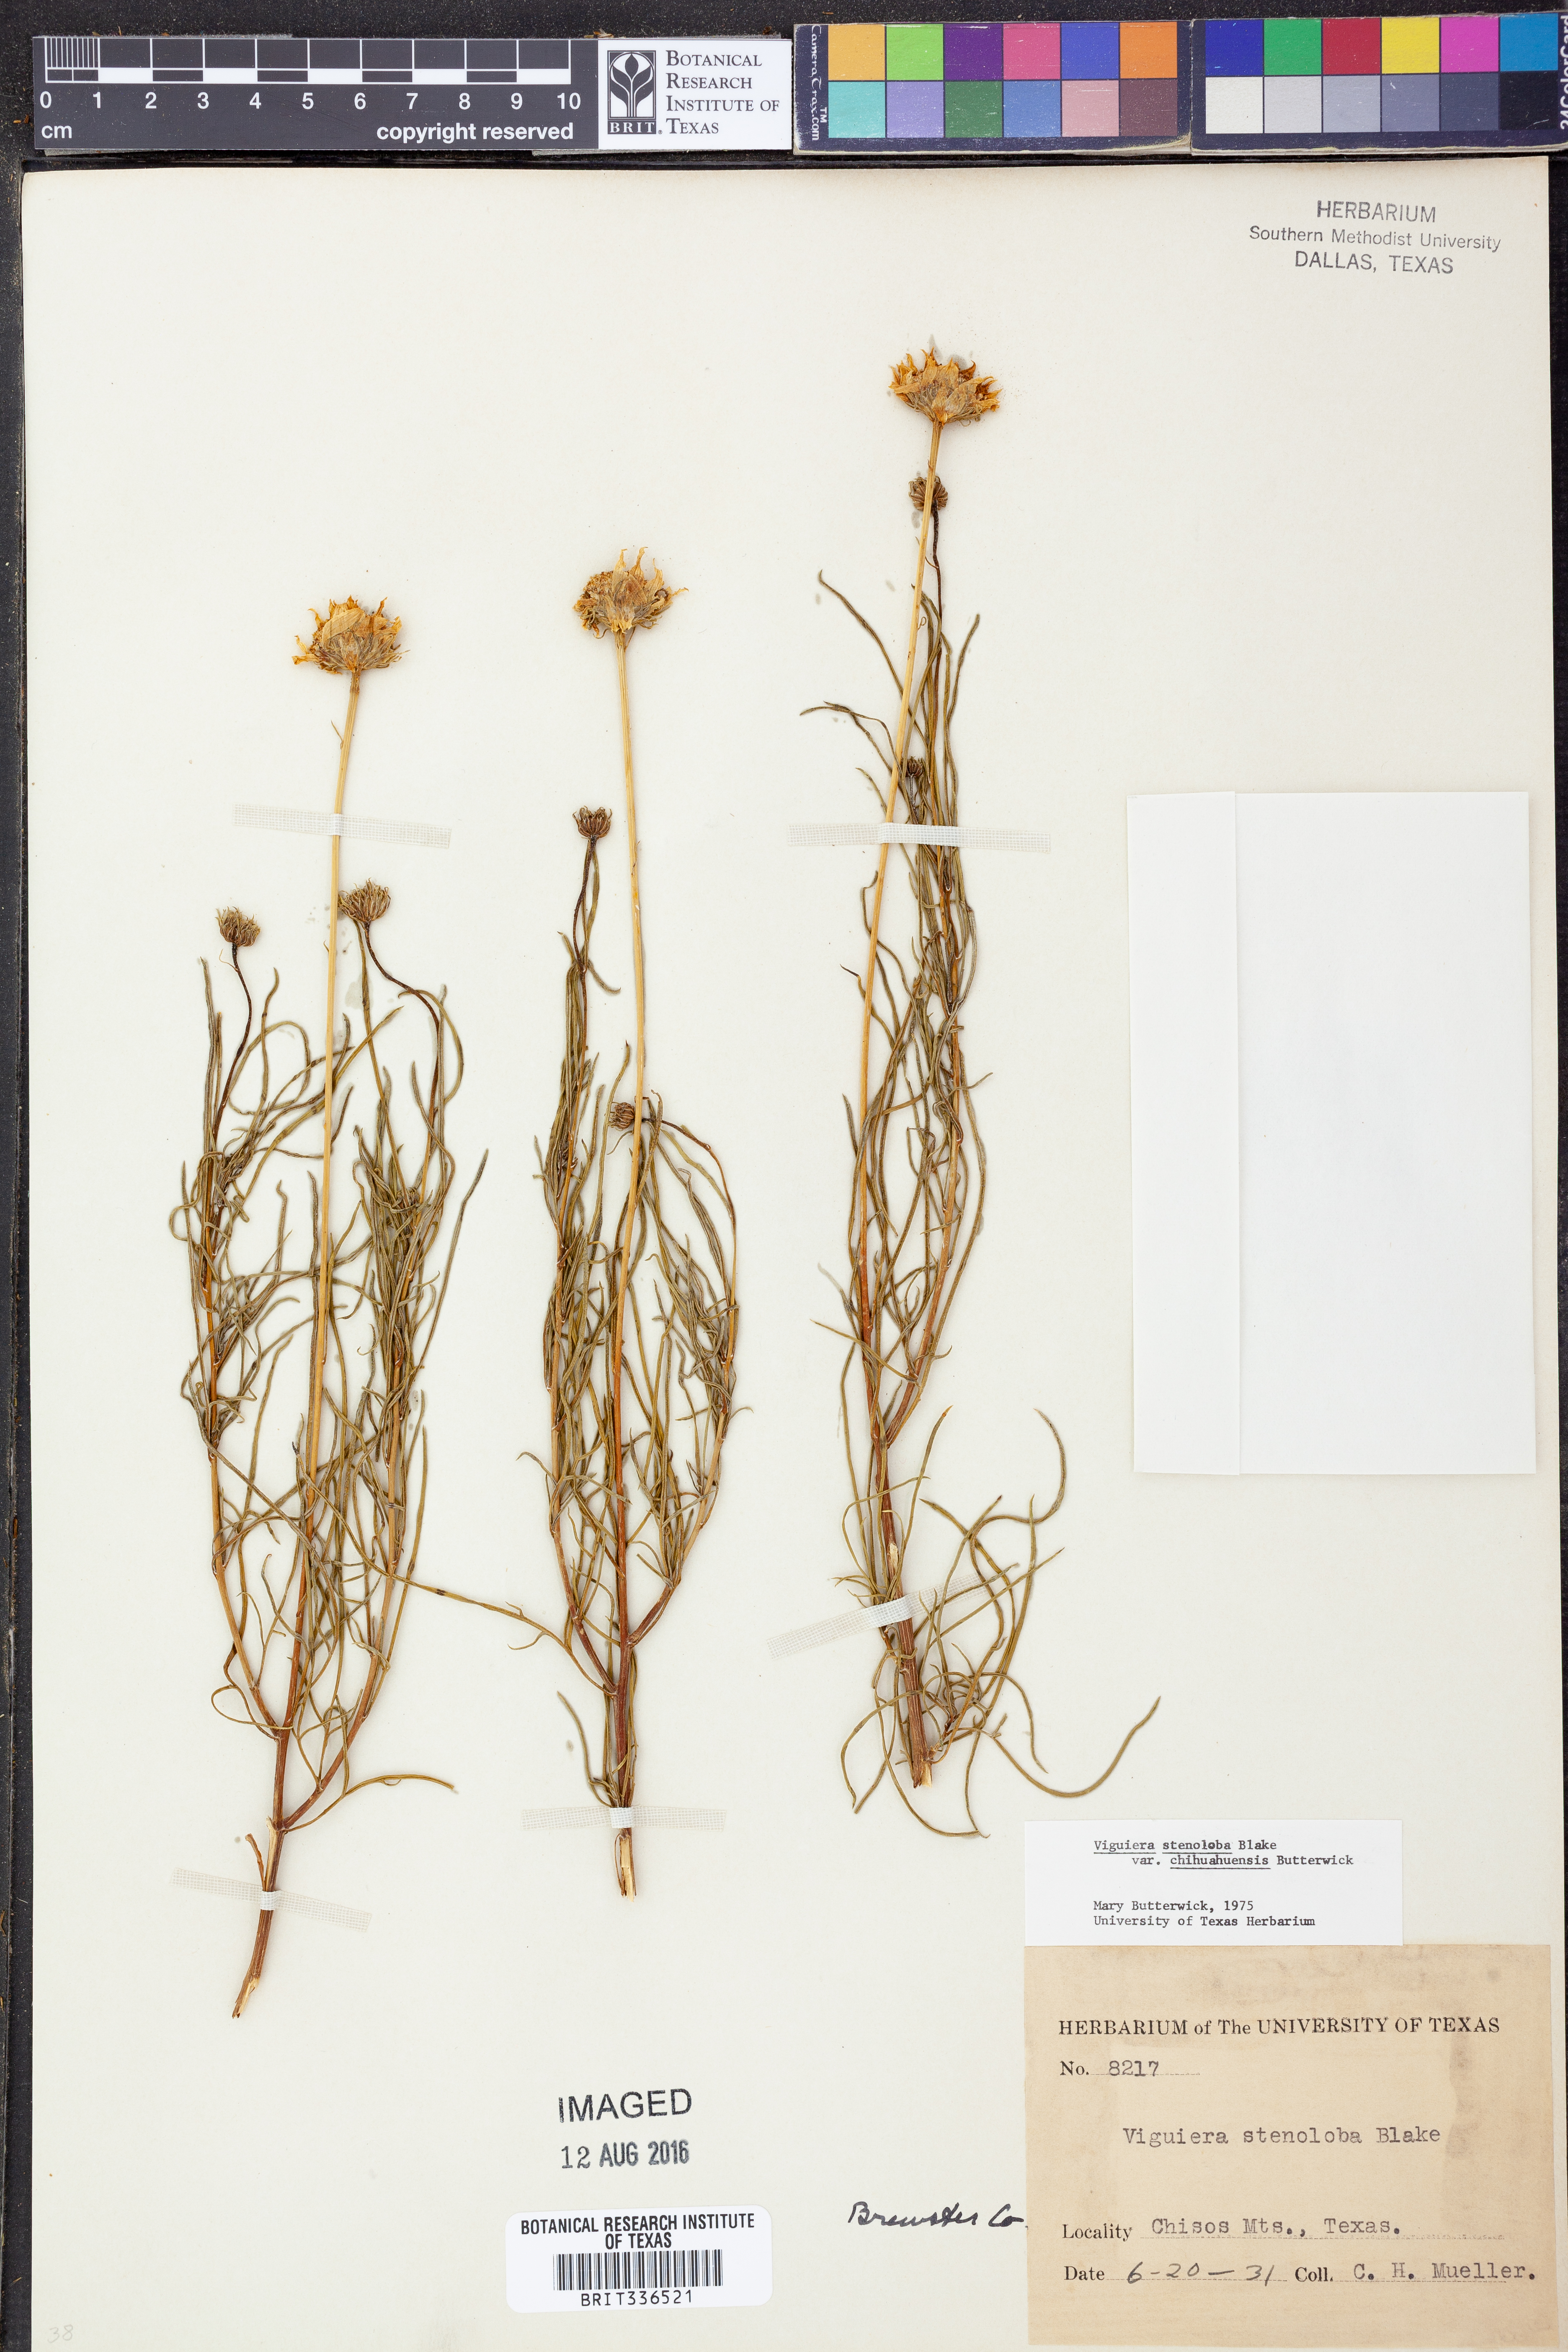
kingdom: Plantae
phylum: Tracheophyta
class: Magnoliopsida
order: Asterales
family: Asteraceae
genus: Sidneya
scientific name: Sidneya tenuifolia
